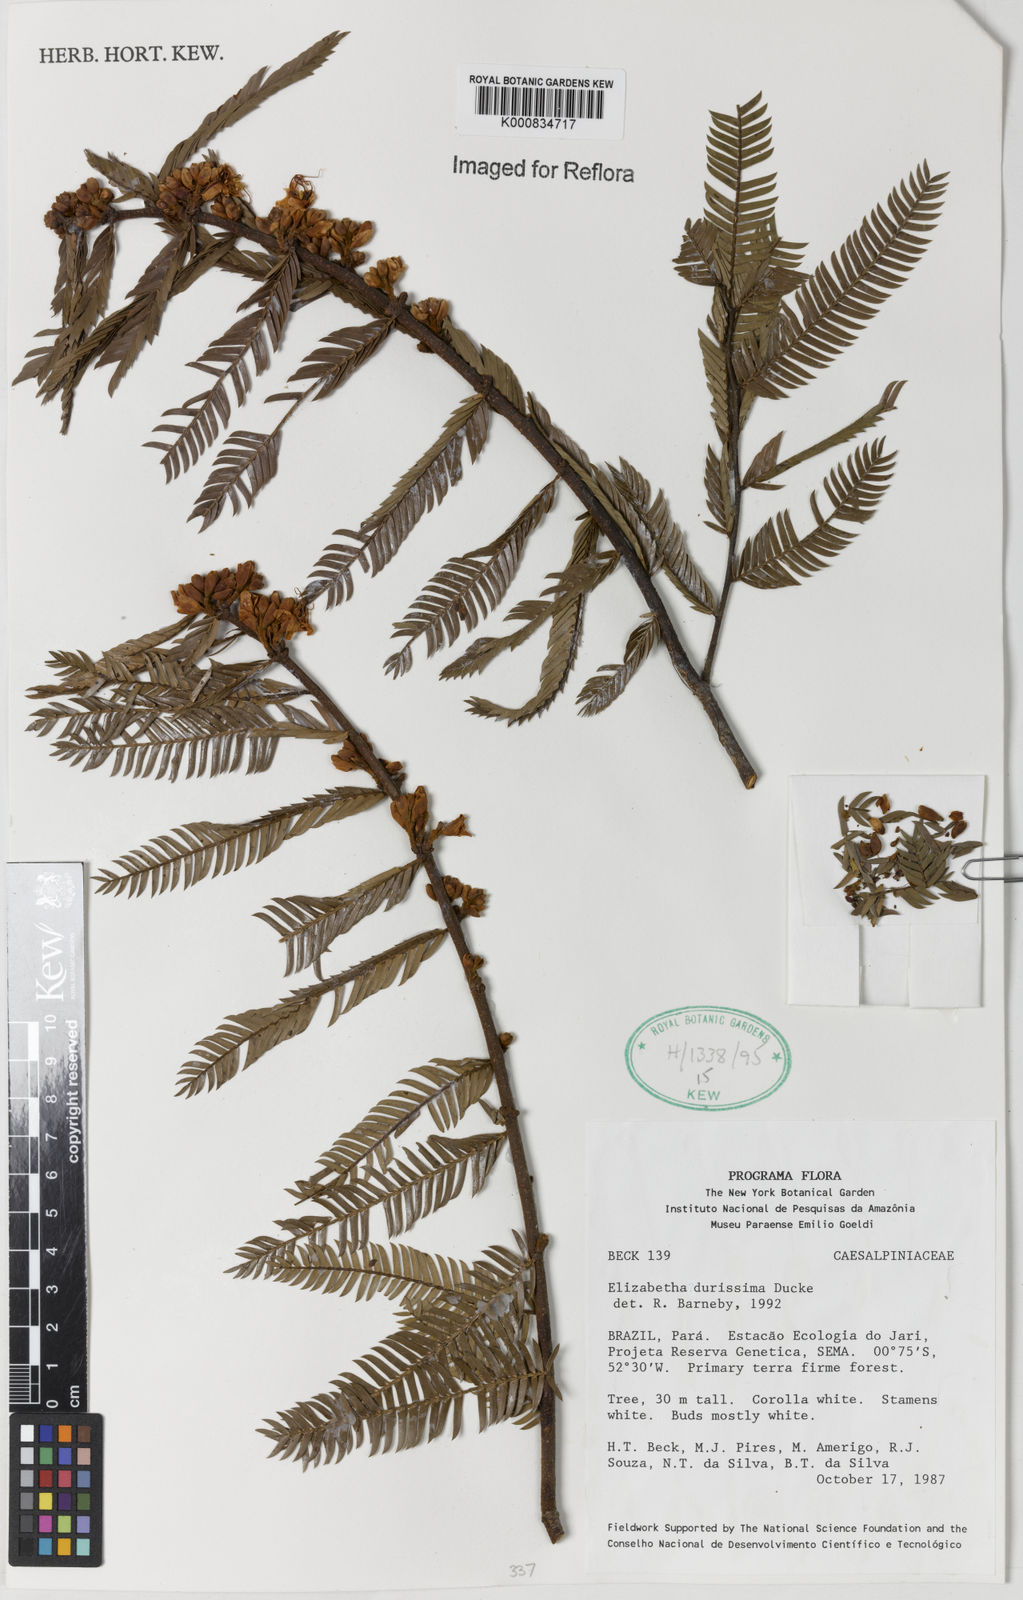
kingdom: Plantae
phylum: Tracheophyta
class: Magnoliopsida
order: Fabales
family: Fabaceae
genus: Paloue
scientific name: Paloue durissima
